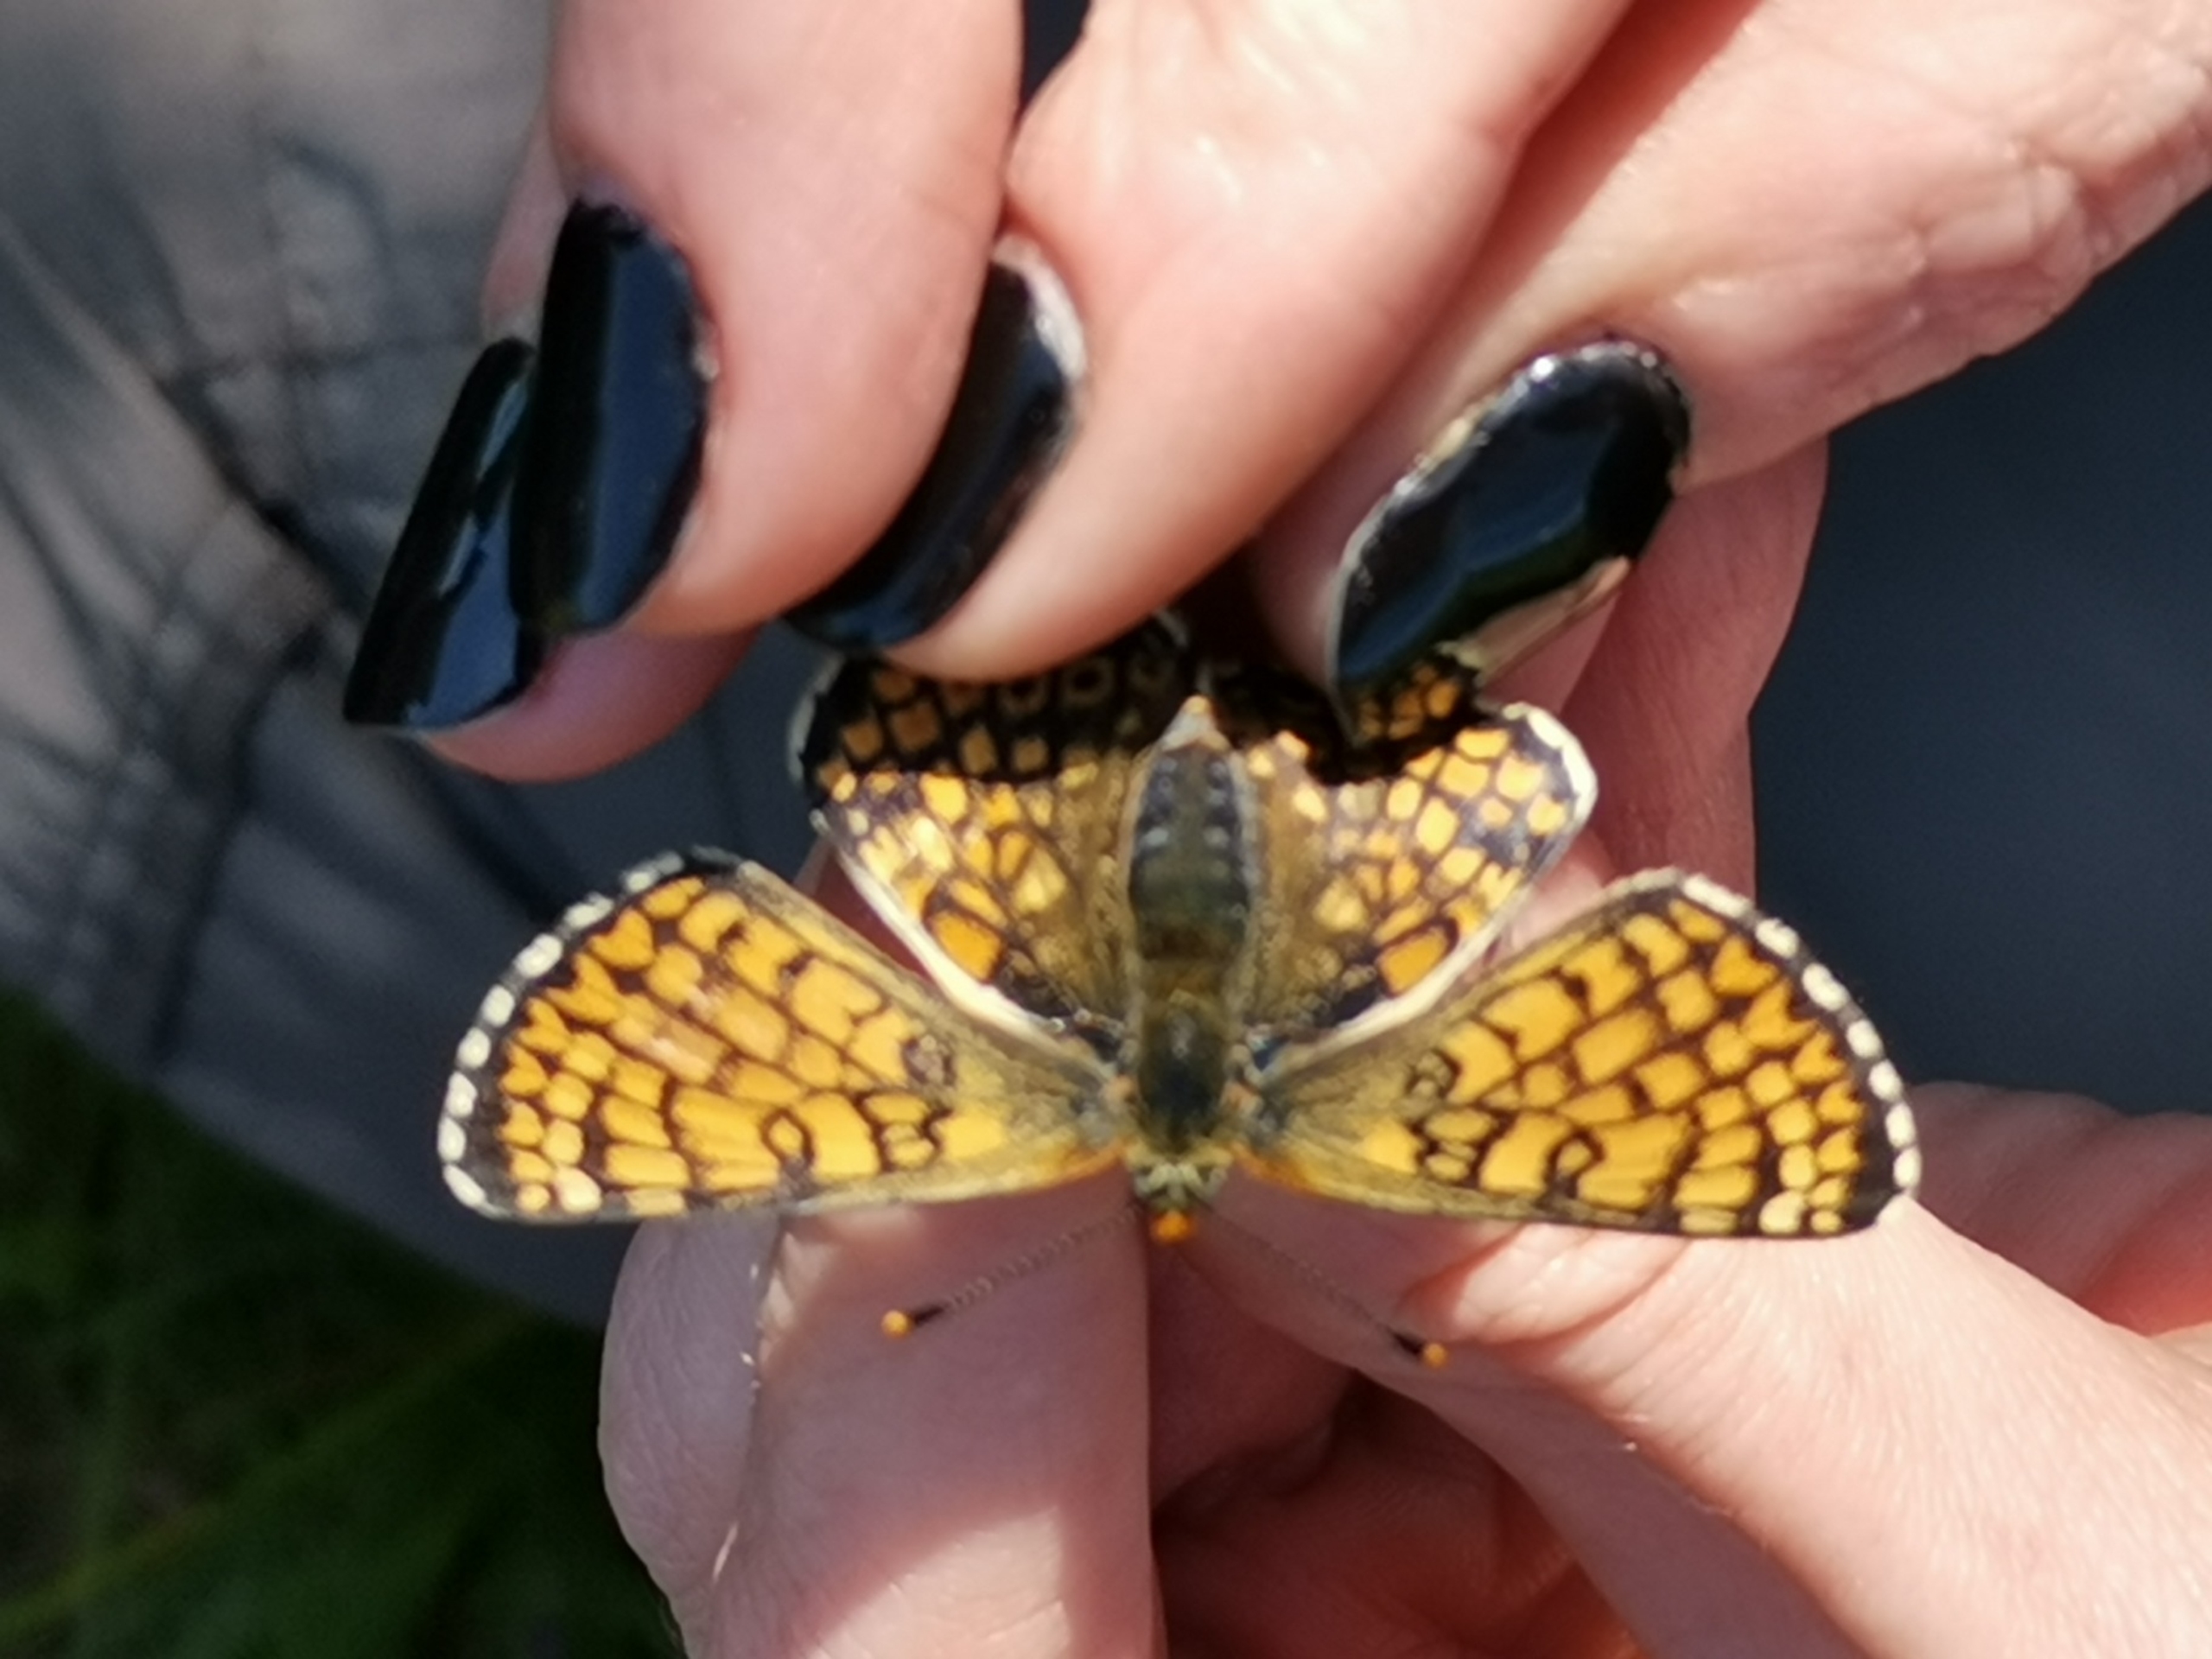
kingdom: Animalia
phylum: Arthropoda
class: Insecta
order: Lepidoptera
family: Nymphalidae
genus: Melitaea
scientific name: Melitaea cinxia
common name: Okkergul pletvinge
